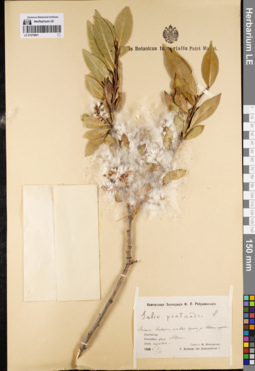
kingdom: Plantae
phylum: Tracheophyta
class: Magnoliopsida
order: Malpighiales
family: Salicaceae
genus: Salix
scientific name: Salix pseudopentandra
